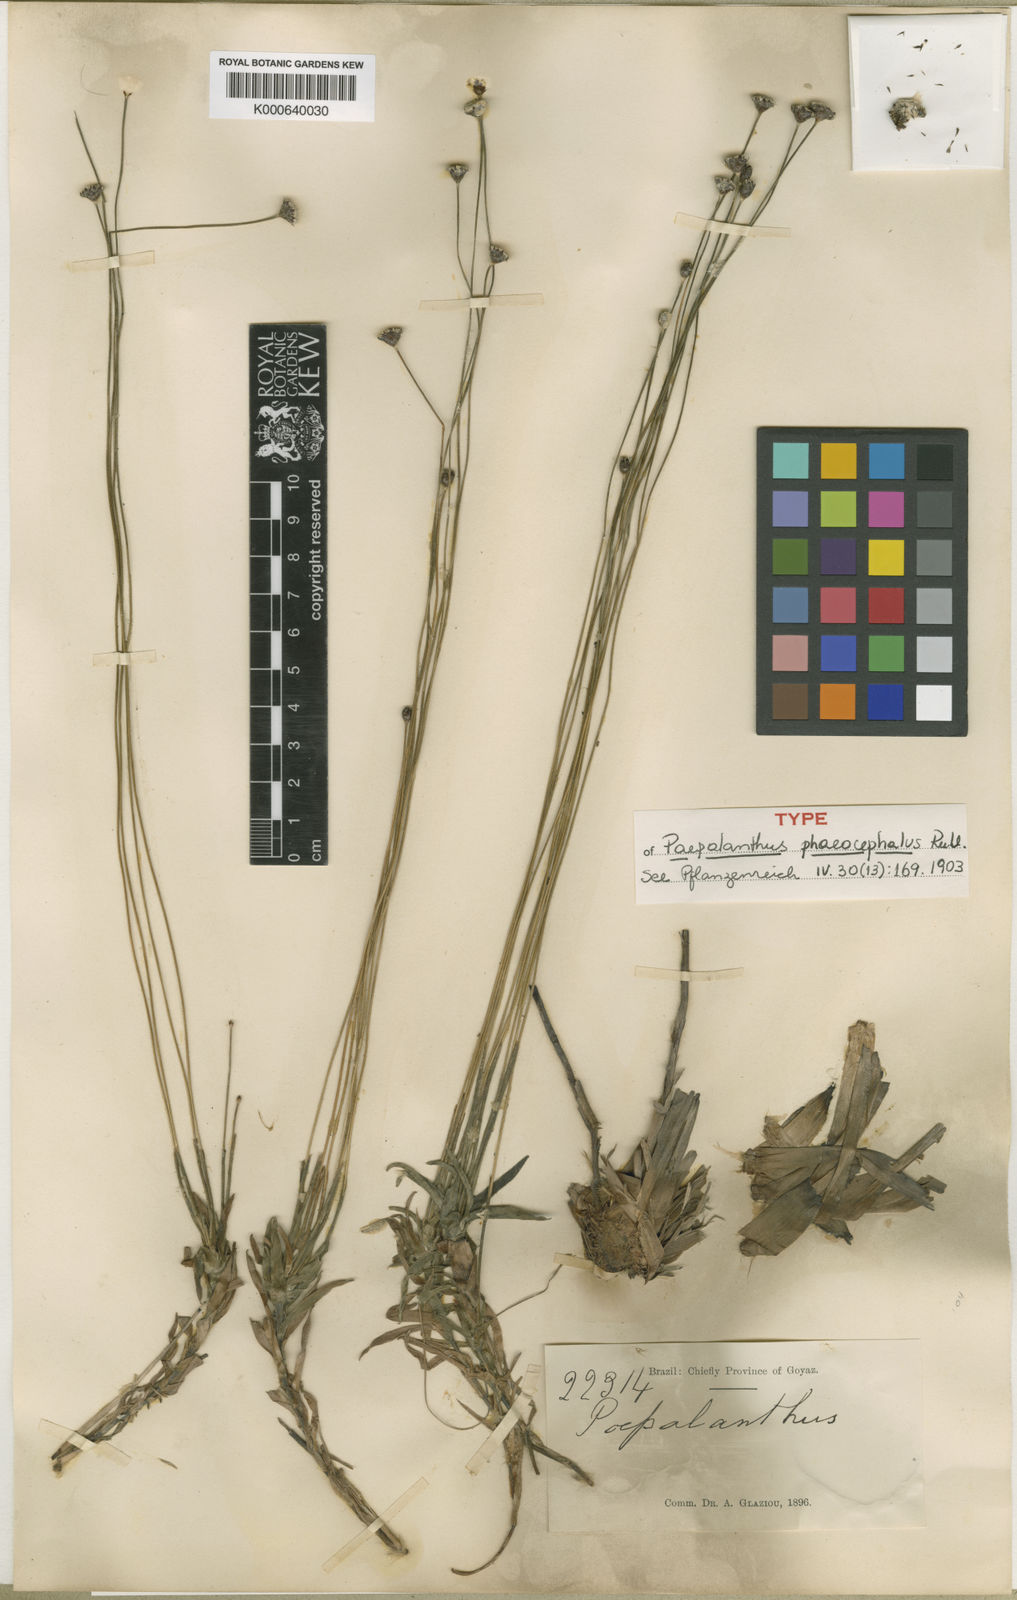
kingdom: Plantae
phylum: Tracheophyta
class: Liliopsida
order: Poales
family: Eriocaulaceae
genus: Paepalanthus
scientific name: Paepalanthus phaeocephalus
